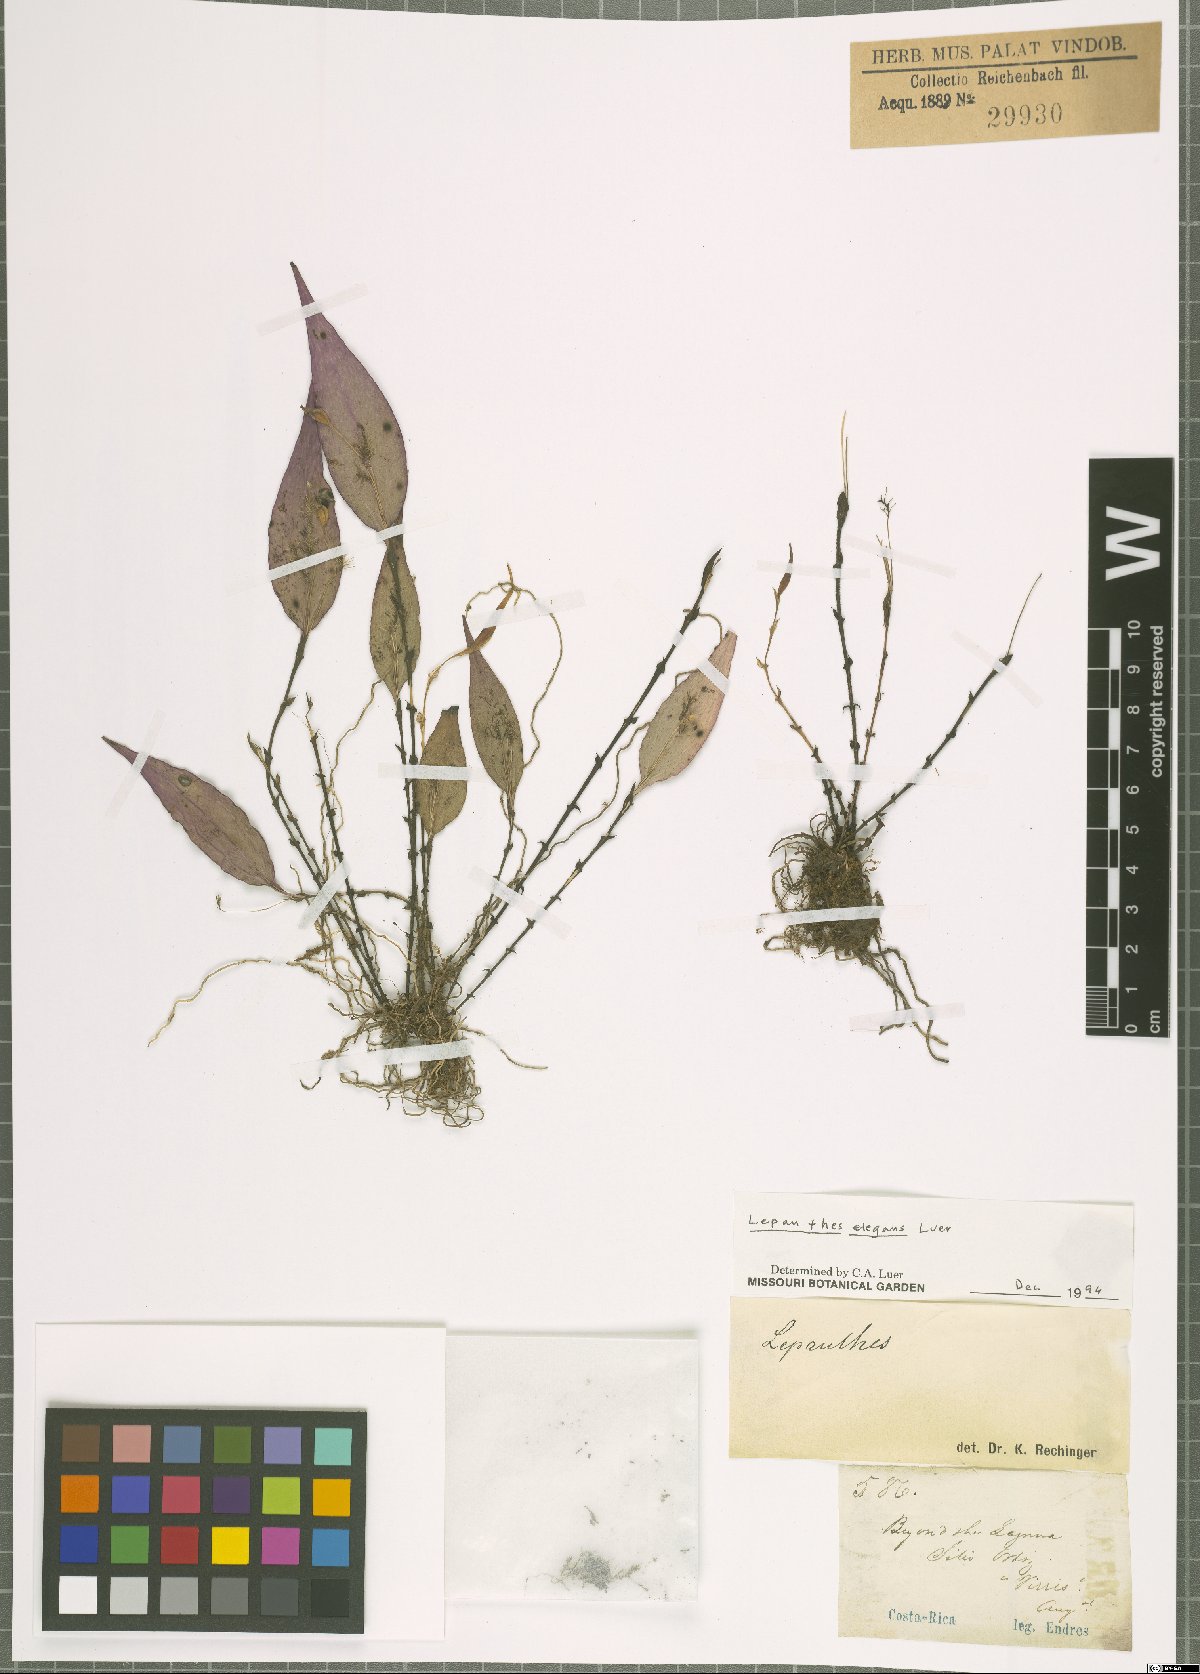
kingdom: Plantae
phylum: Tracheophyta
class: Liliopsida
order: Asparagales
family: Orchidaceae
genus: Lepanthes
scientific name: Lepanthes elegans
